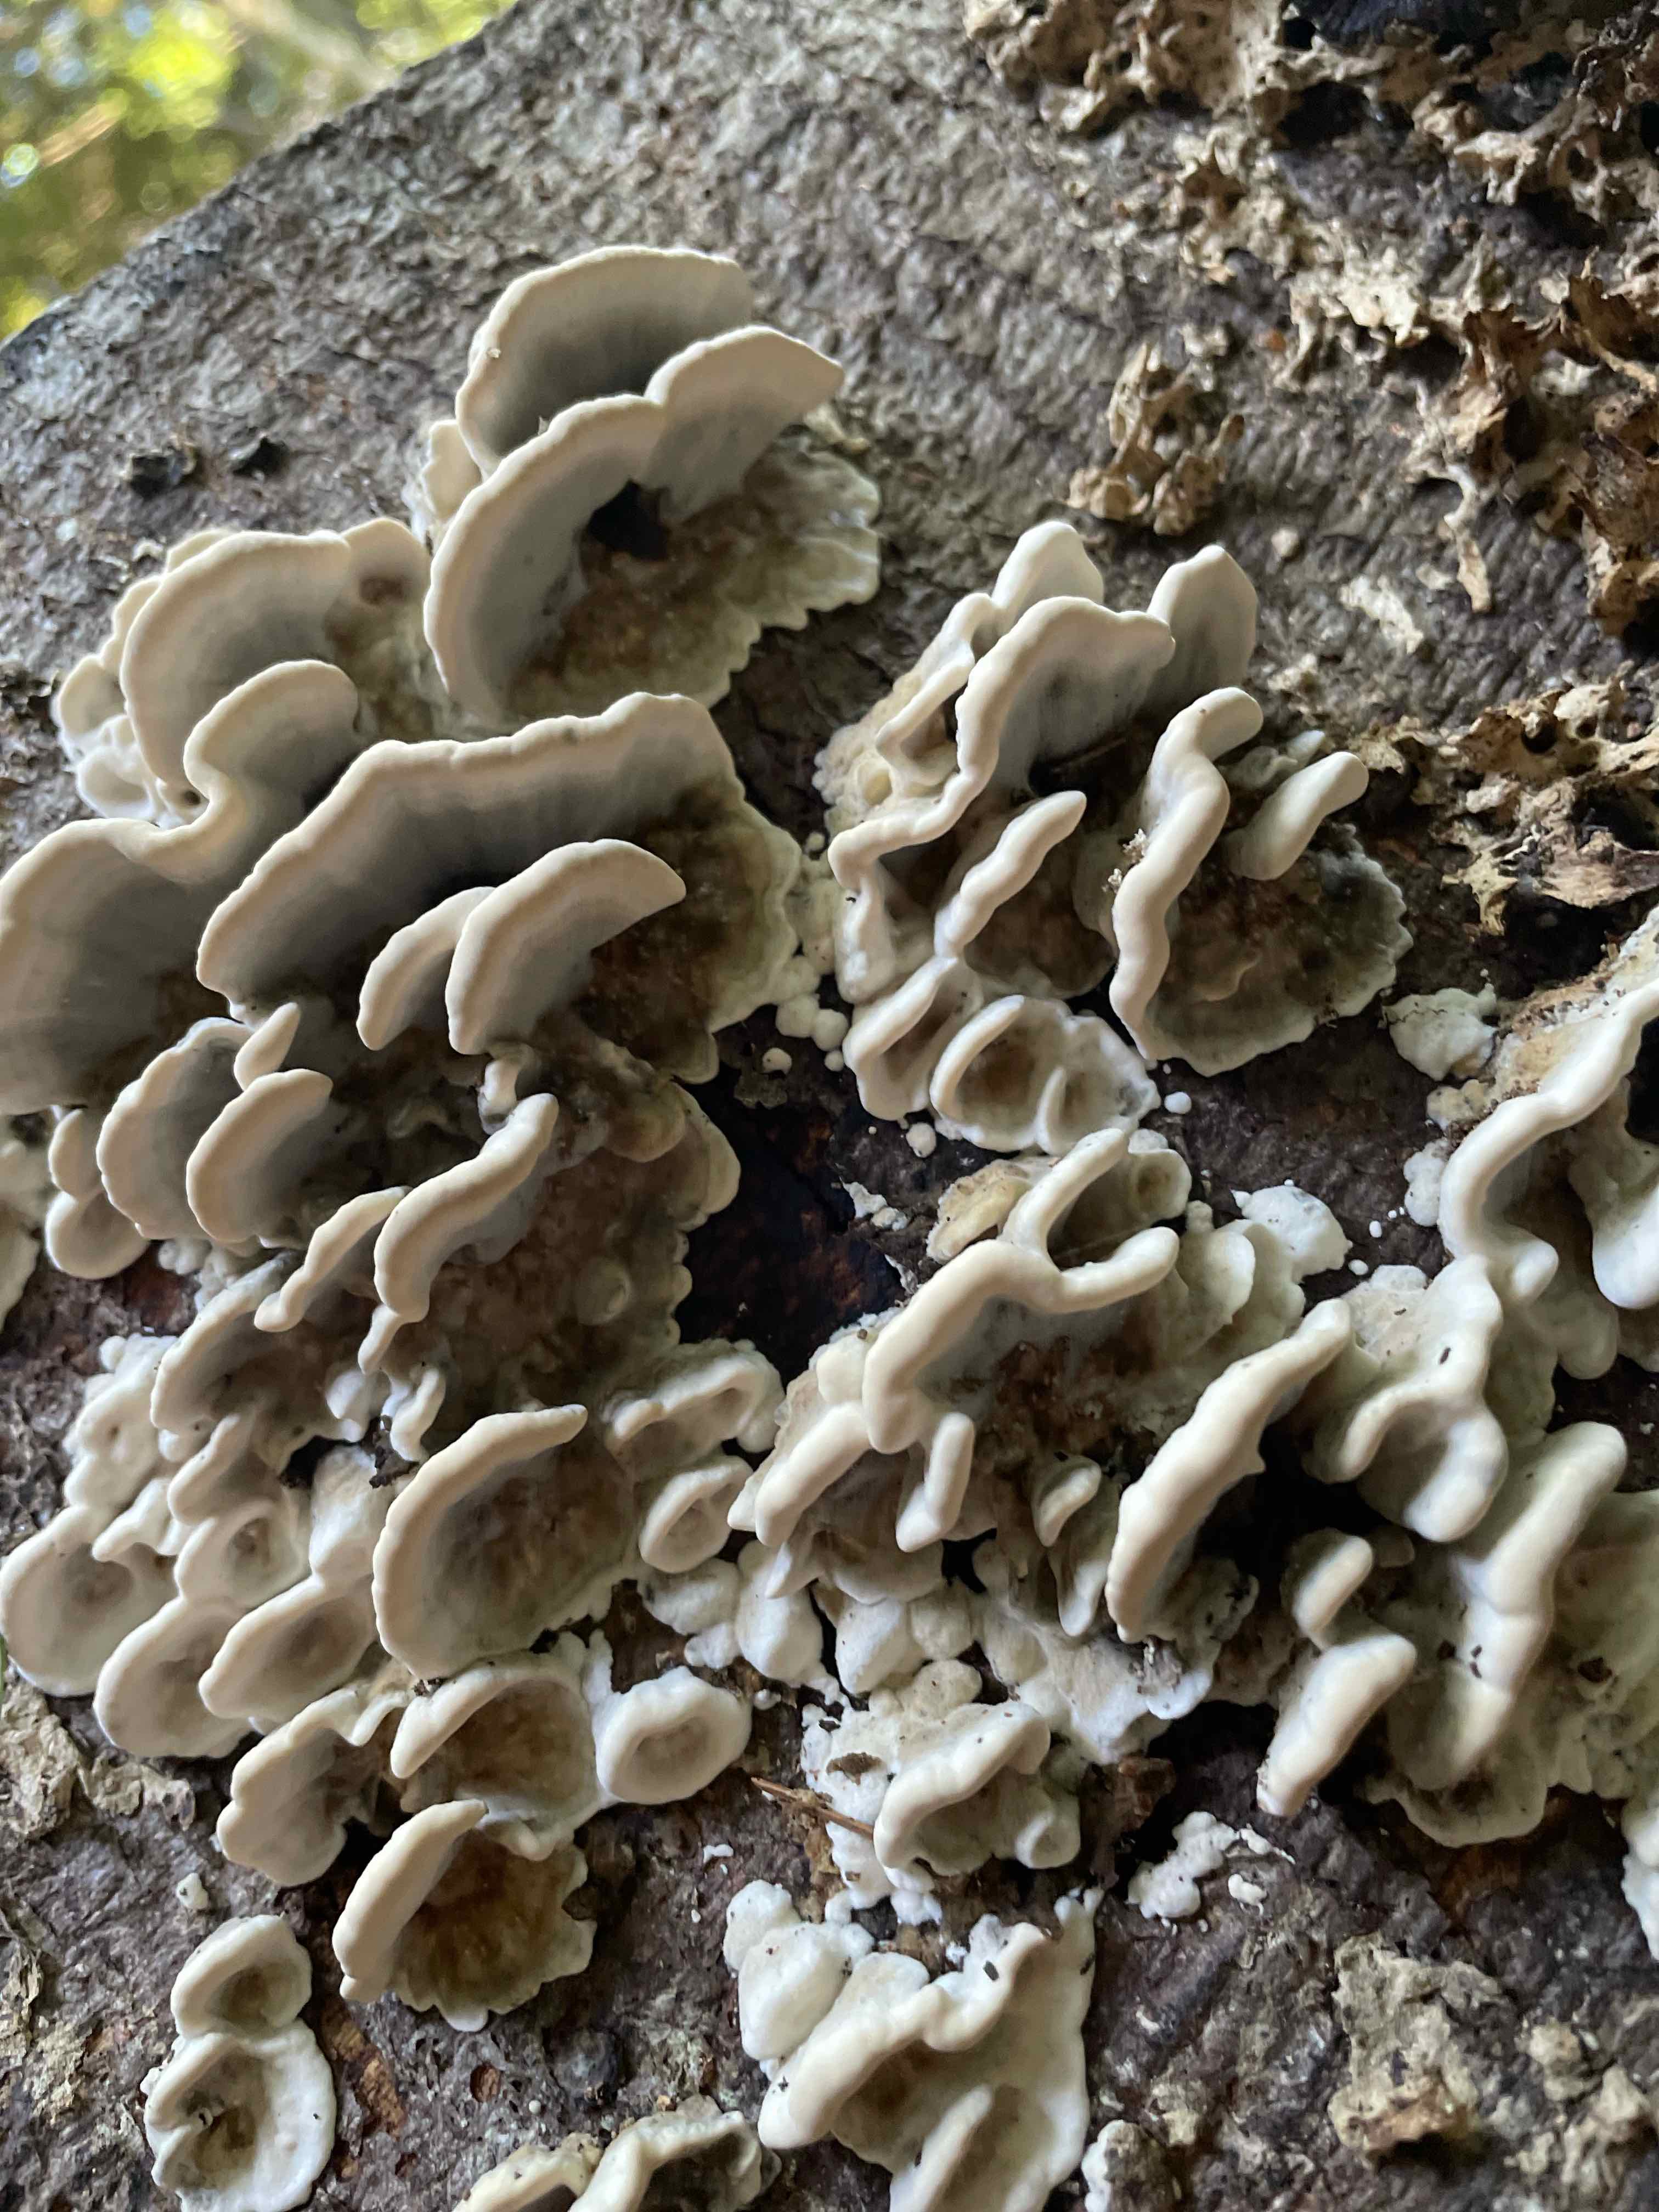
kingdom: Fungi
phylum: Basidiomycota
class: Agaricomycetes
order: Polyporales
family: Phanerochaetaceae
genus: Bjerkandera
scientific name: Bjerkandera adusta
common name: sveden sodporesvamp
